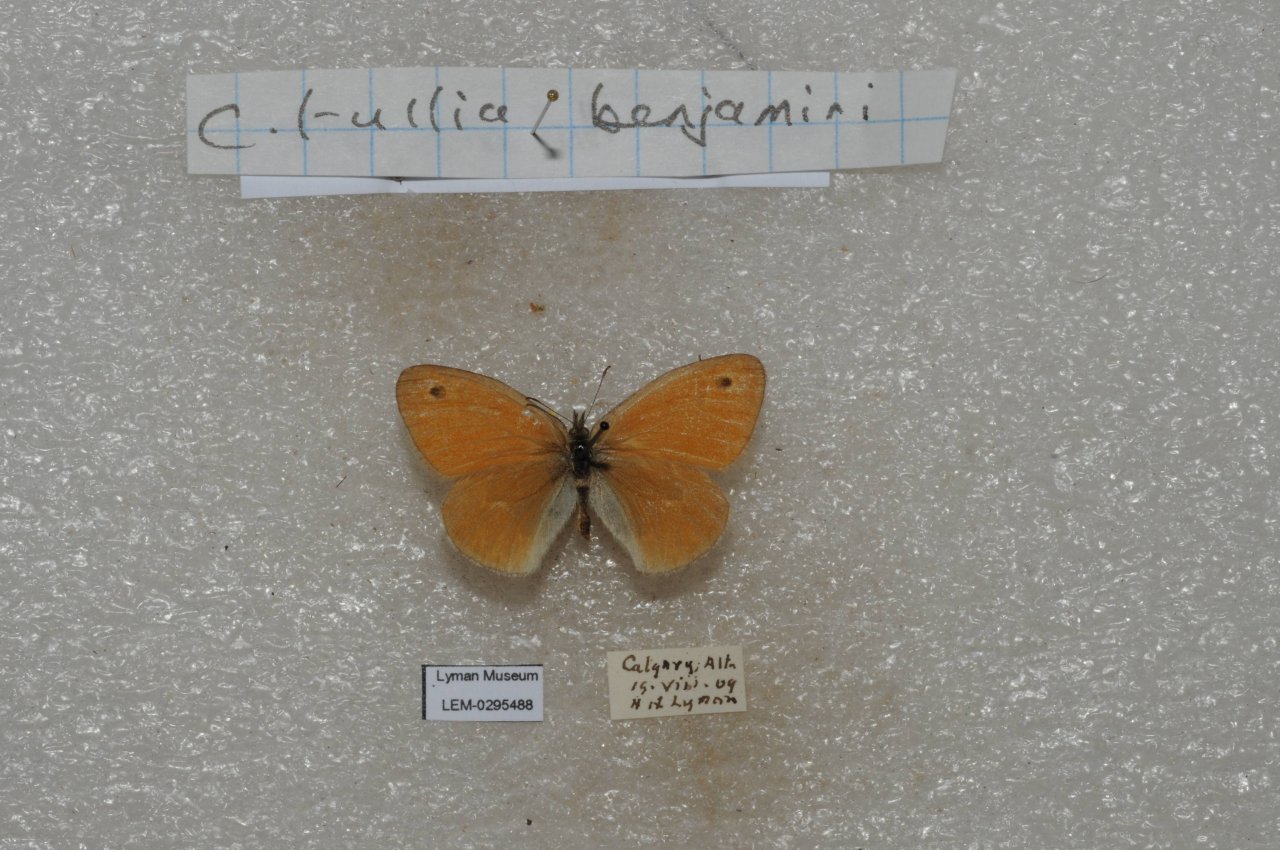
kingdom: Animalia
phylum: Arthropoda
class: Insecta
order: Lepidoptera
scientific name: Lepidoptera
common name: Butterflies
